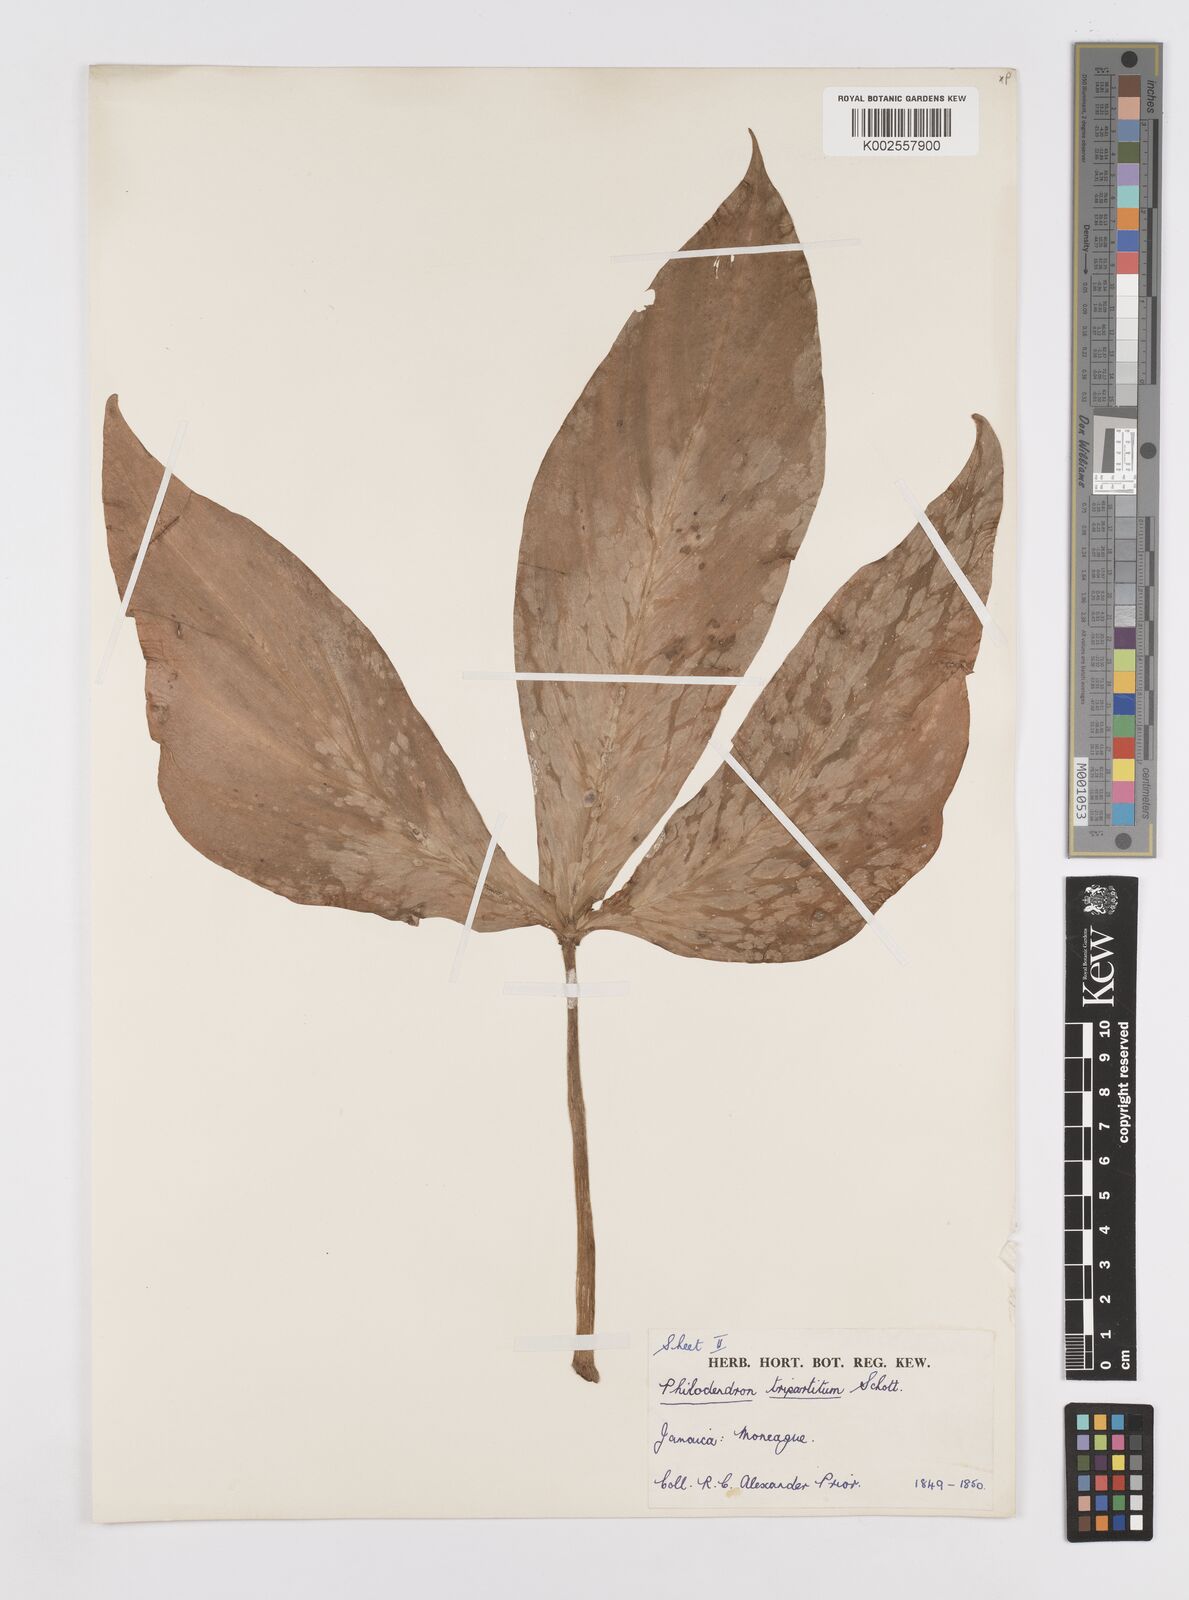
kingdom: Plantae
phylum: Tracheophyta
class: Liliopsida
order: Alismatales
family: Araceae
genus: Philodendron
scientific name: Philodendron tripartitum
